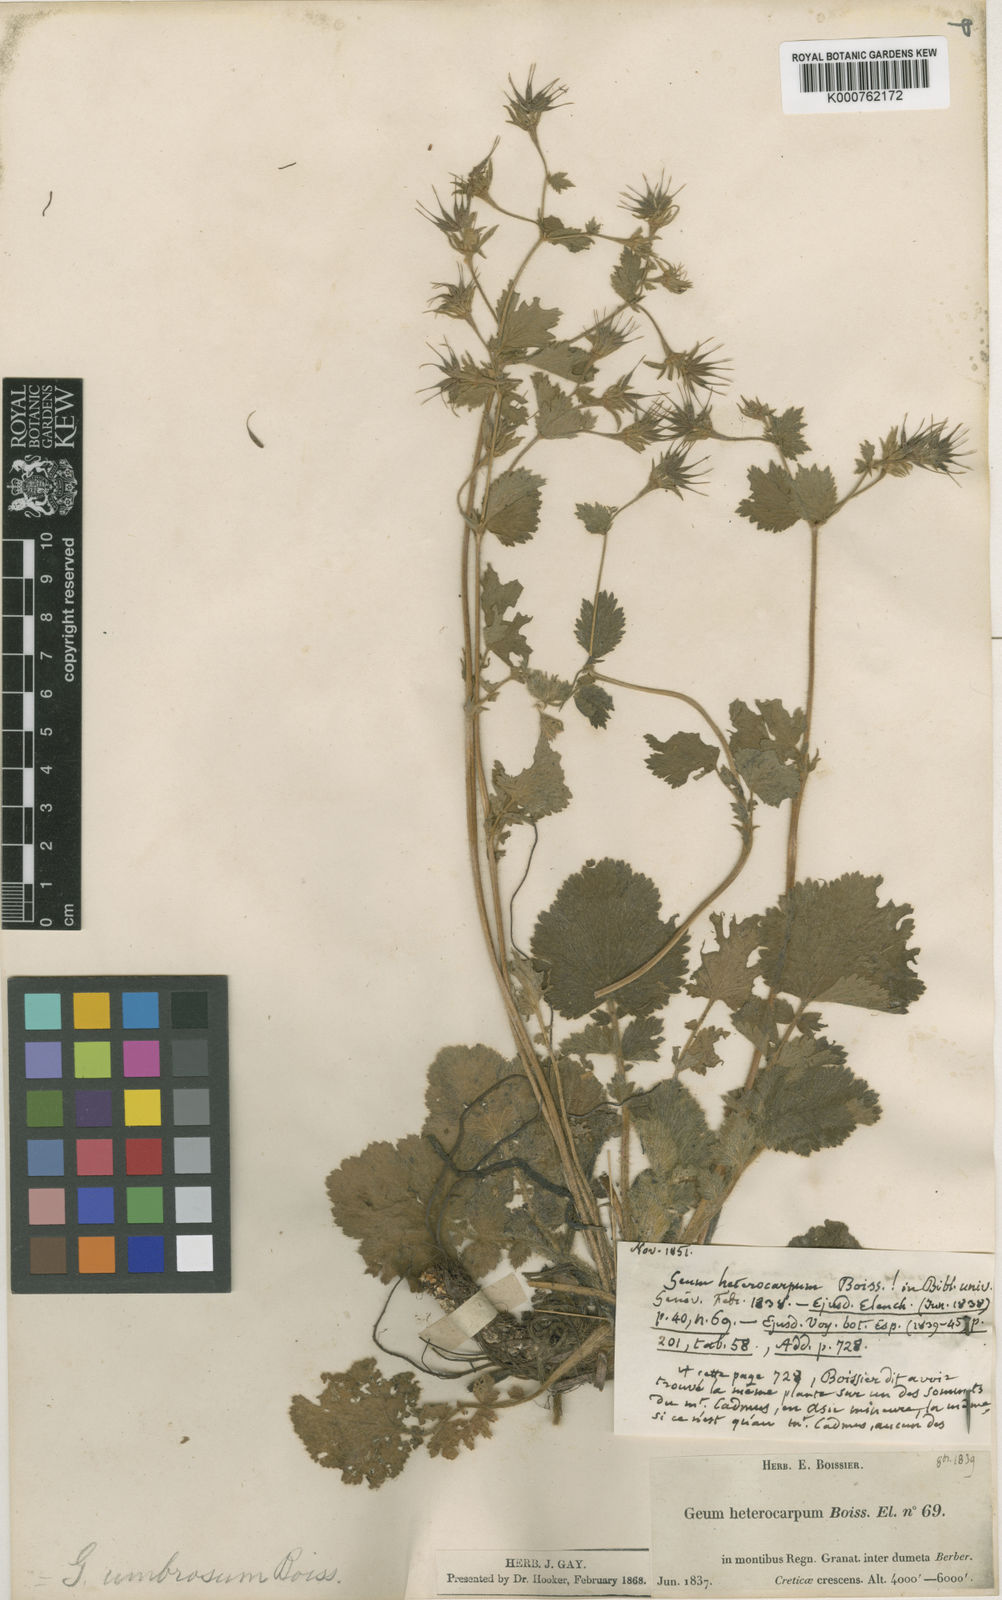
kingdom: Plantae
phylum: Tracheophyta
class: Magnoliopsida
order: Rosales
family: Rosaceae
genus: Geum
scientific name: Geum heterocarpum
